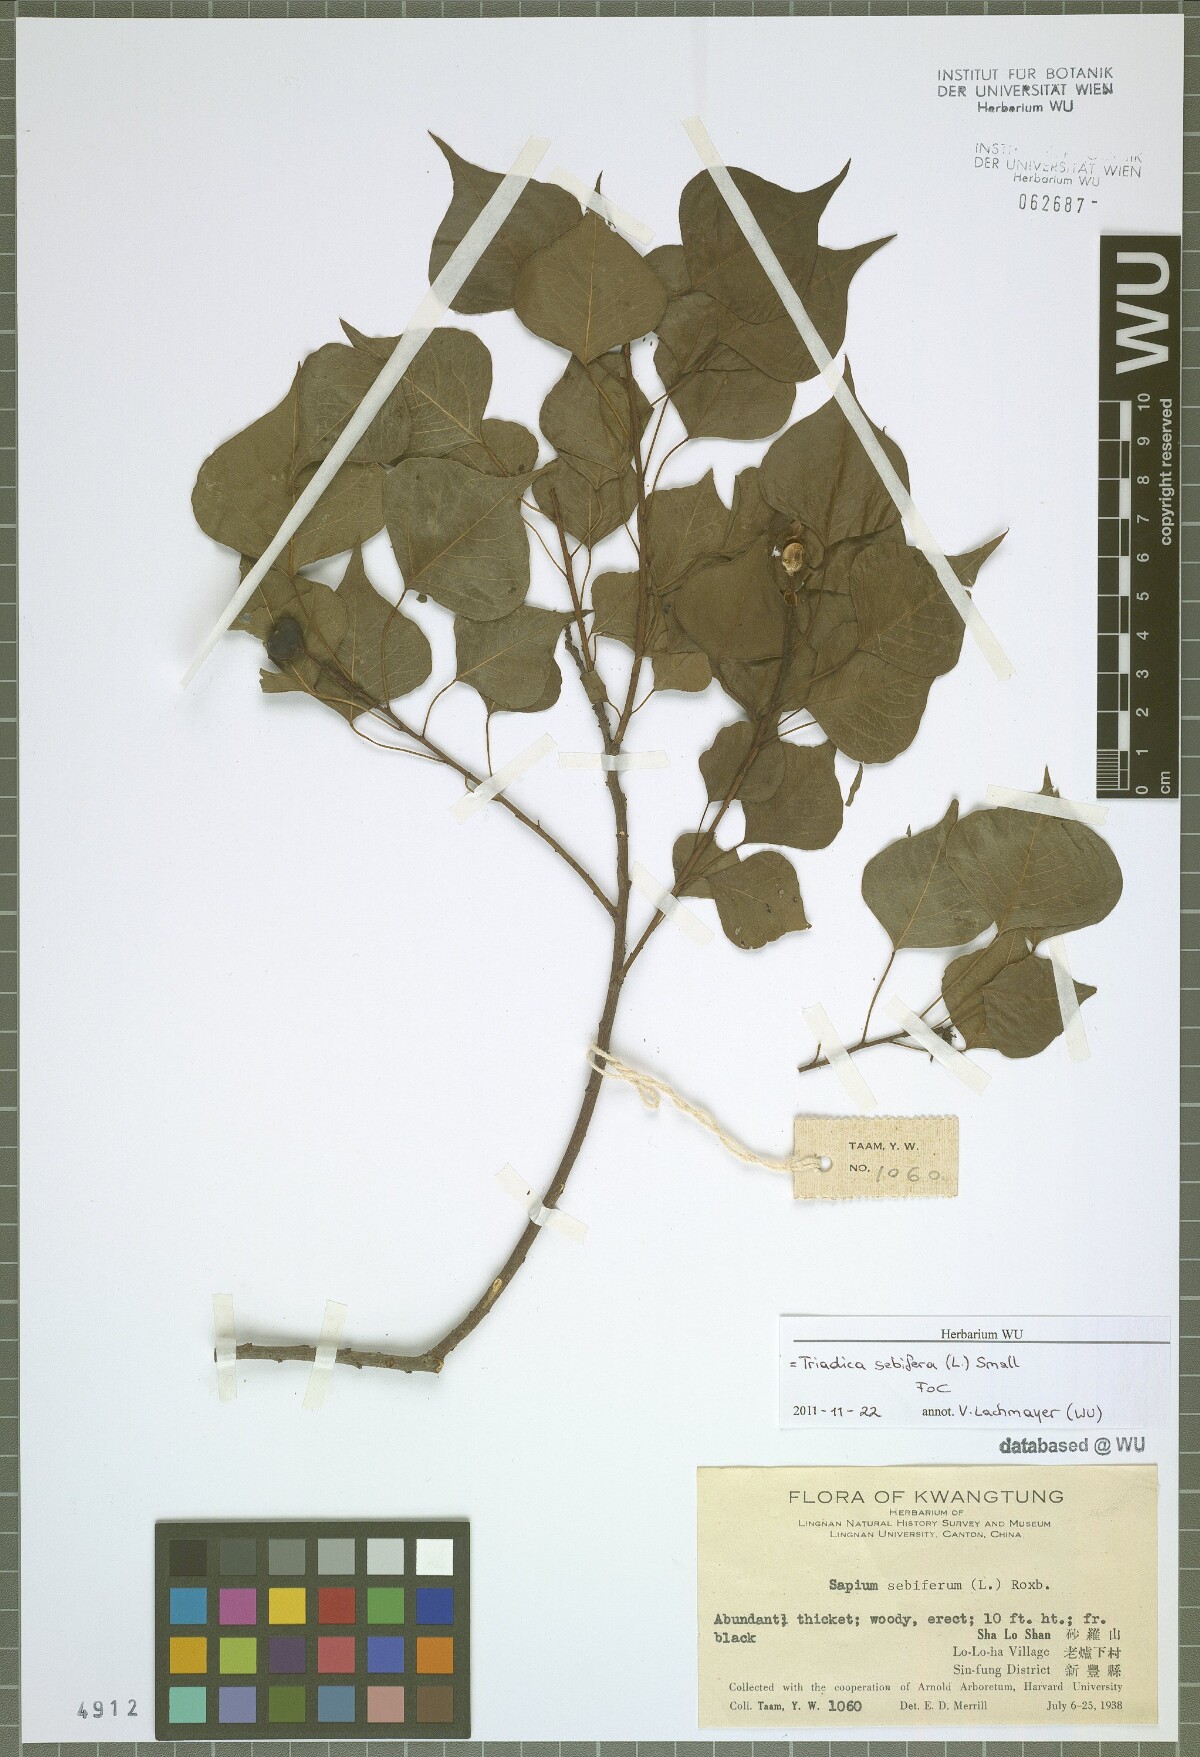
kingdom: Plantae
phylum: Tracheophyta
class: Magnoliopsida
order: Malpighiales
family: Euphorbiaceae
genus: Triadica
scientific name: Triadica sebifera
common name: Chinese tallow
